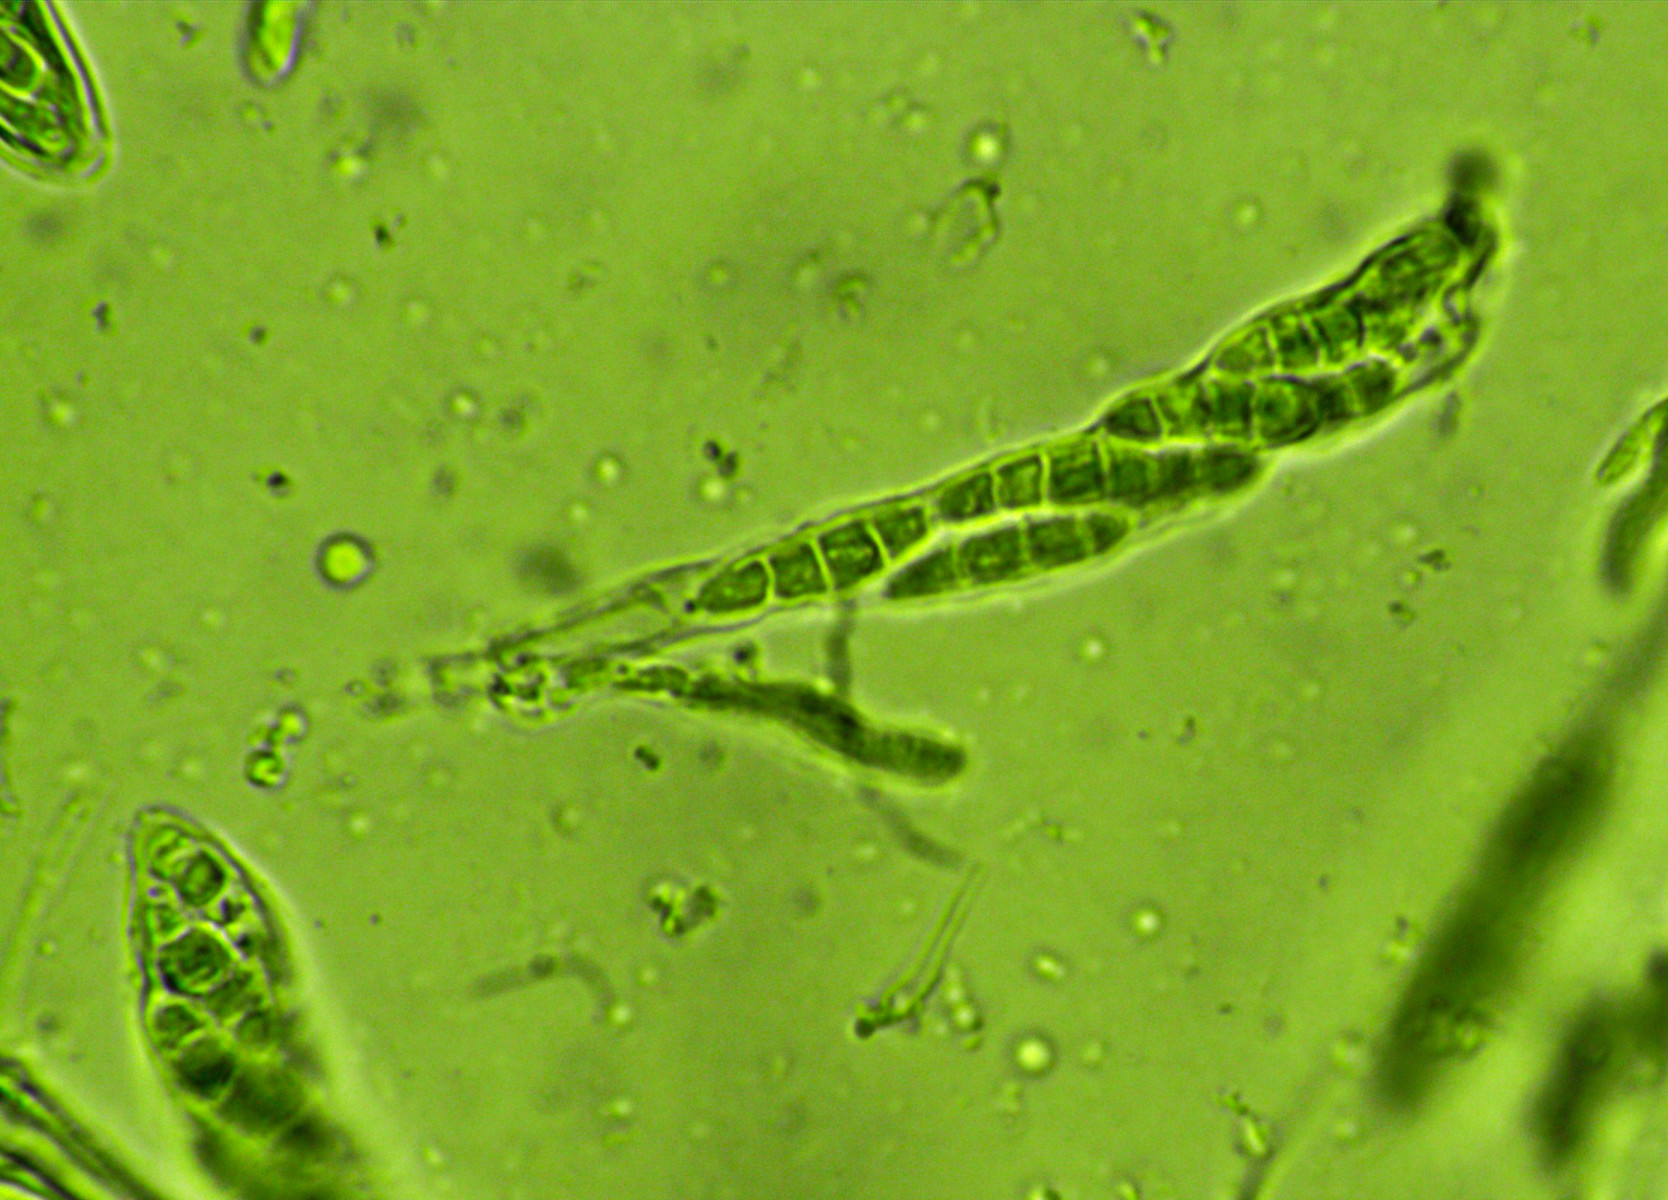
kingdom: Fungi
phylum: Ascomycota
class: Leotiomycetes
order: Helotiales
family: Helotiaceae
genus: Durella
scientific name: Durella macrospora
